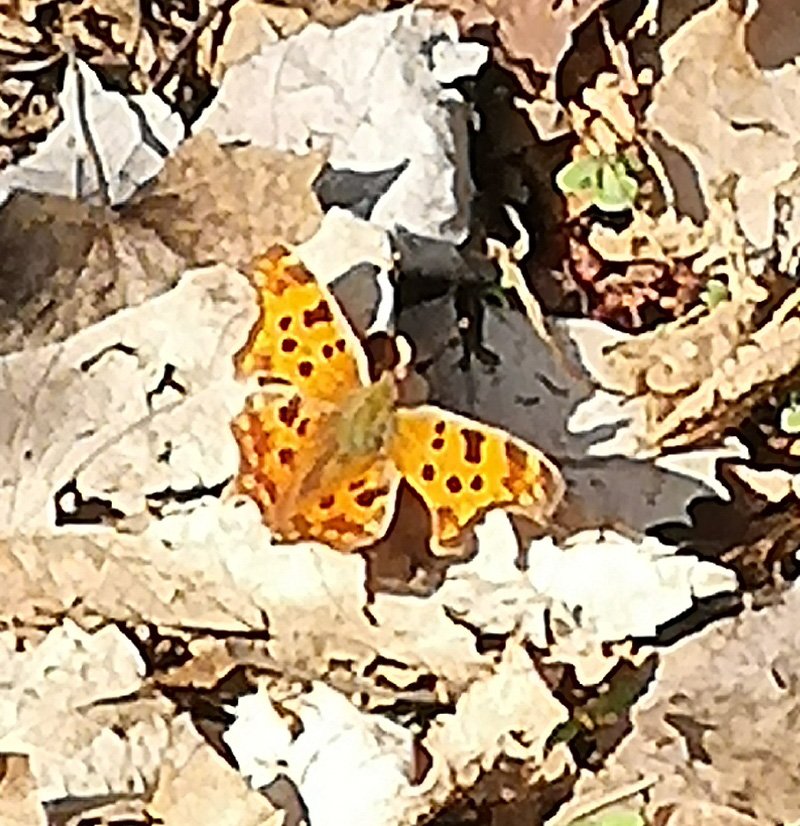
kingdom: Animalia
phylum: Arthropoda
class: Insecta
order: Lepidoptera
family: Nymphalidae
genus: Polygonia
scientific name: Polygonia comma
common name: Eastern Comma
